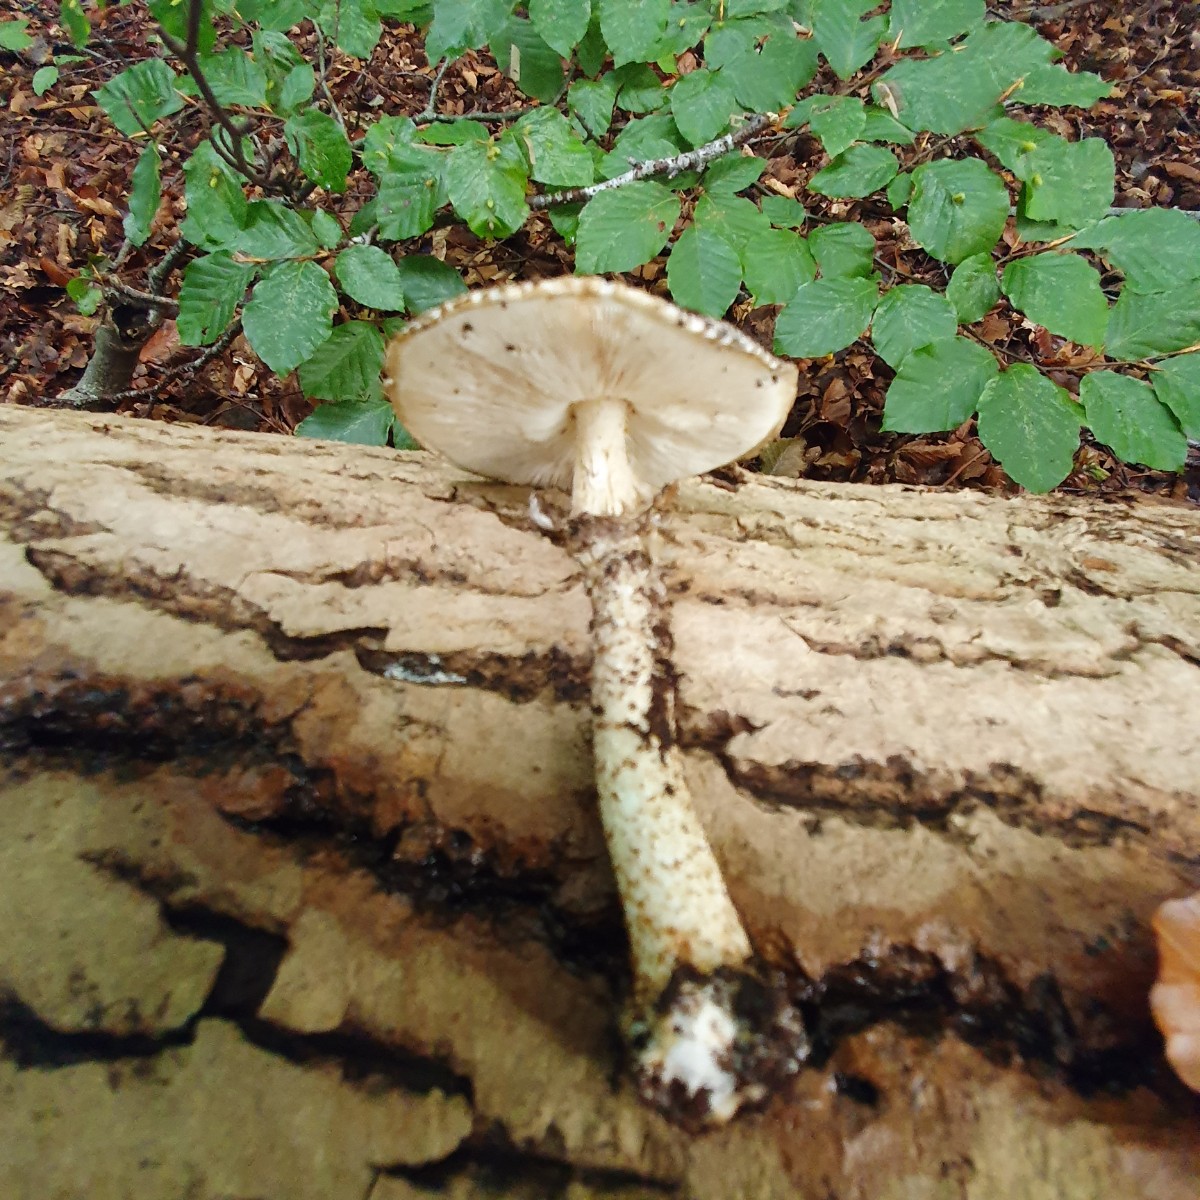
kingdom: Fungi
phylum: Basidiomycota
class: Agaricomycetes
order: Agaricales
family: Agaricaceae
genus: Echinoderma
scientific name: Echinoderma hystrix
